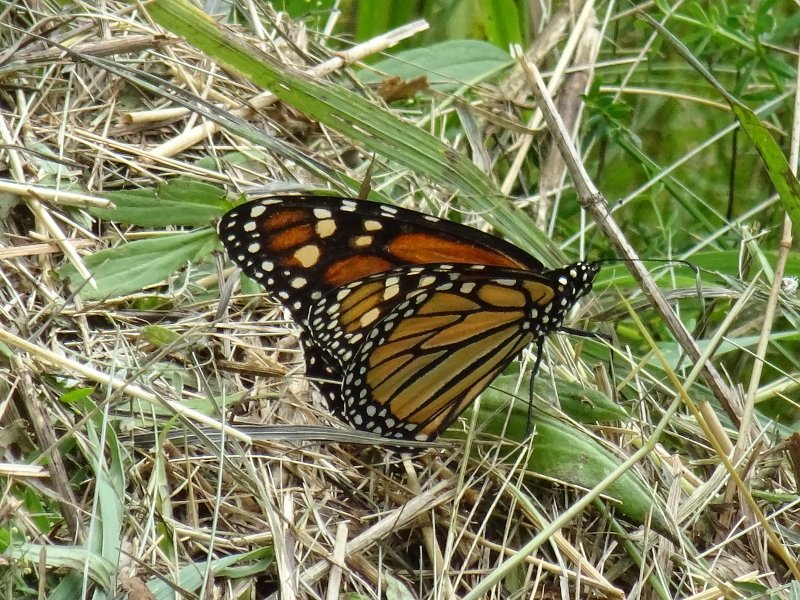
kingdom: Animalia
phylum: Arthropoda
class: Insecta
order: Lepidoptera
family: Nymphalidae
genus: Danaus
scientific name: Danaus plexippus
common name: Monarch
